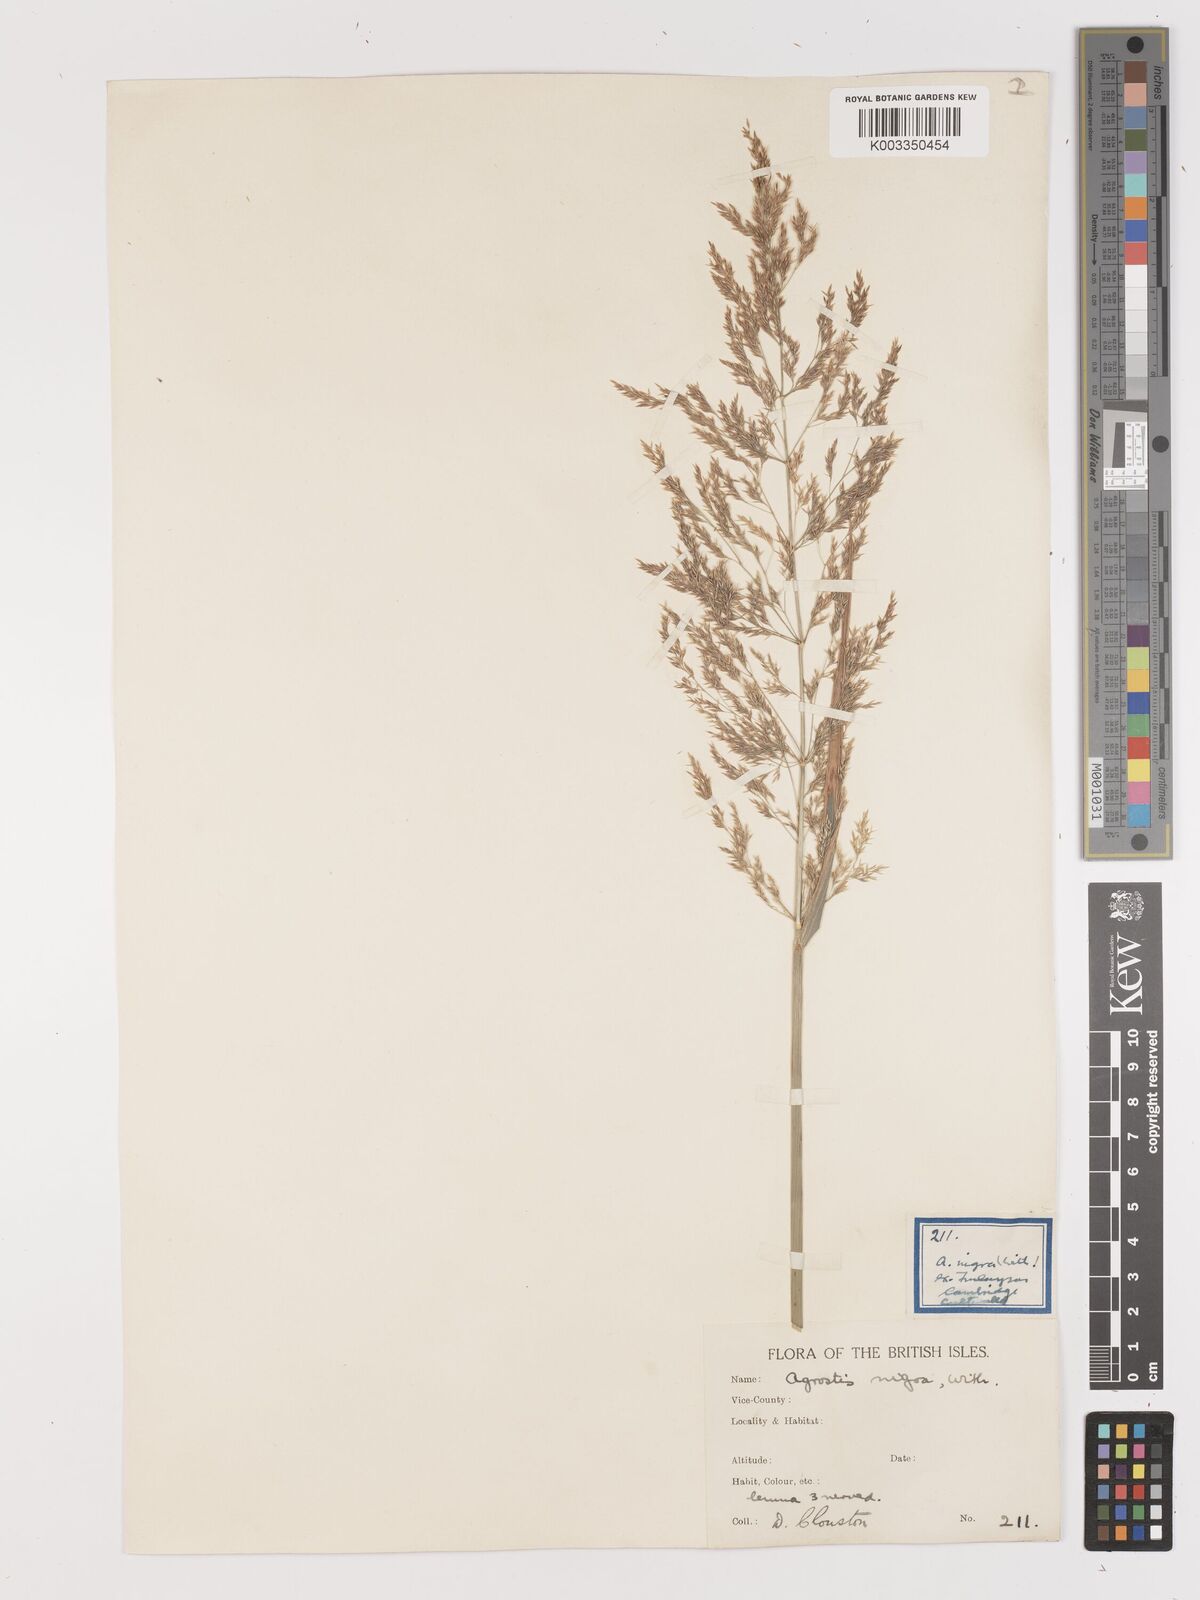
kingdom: Plantae
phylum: Tracheophyta
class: Liliopsida
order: Poales
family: Poaceae
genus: Agrostis
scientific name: Agrostis gigantea
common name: Black bent
